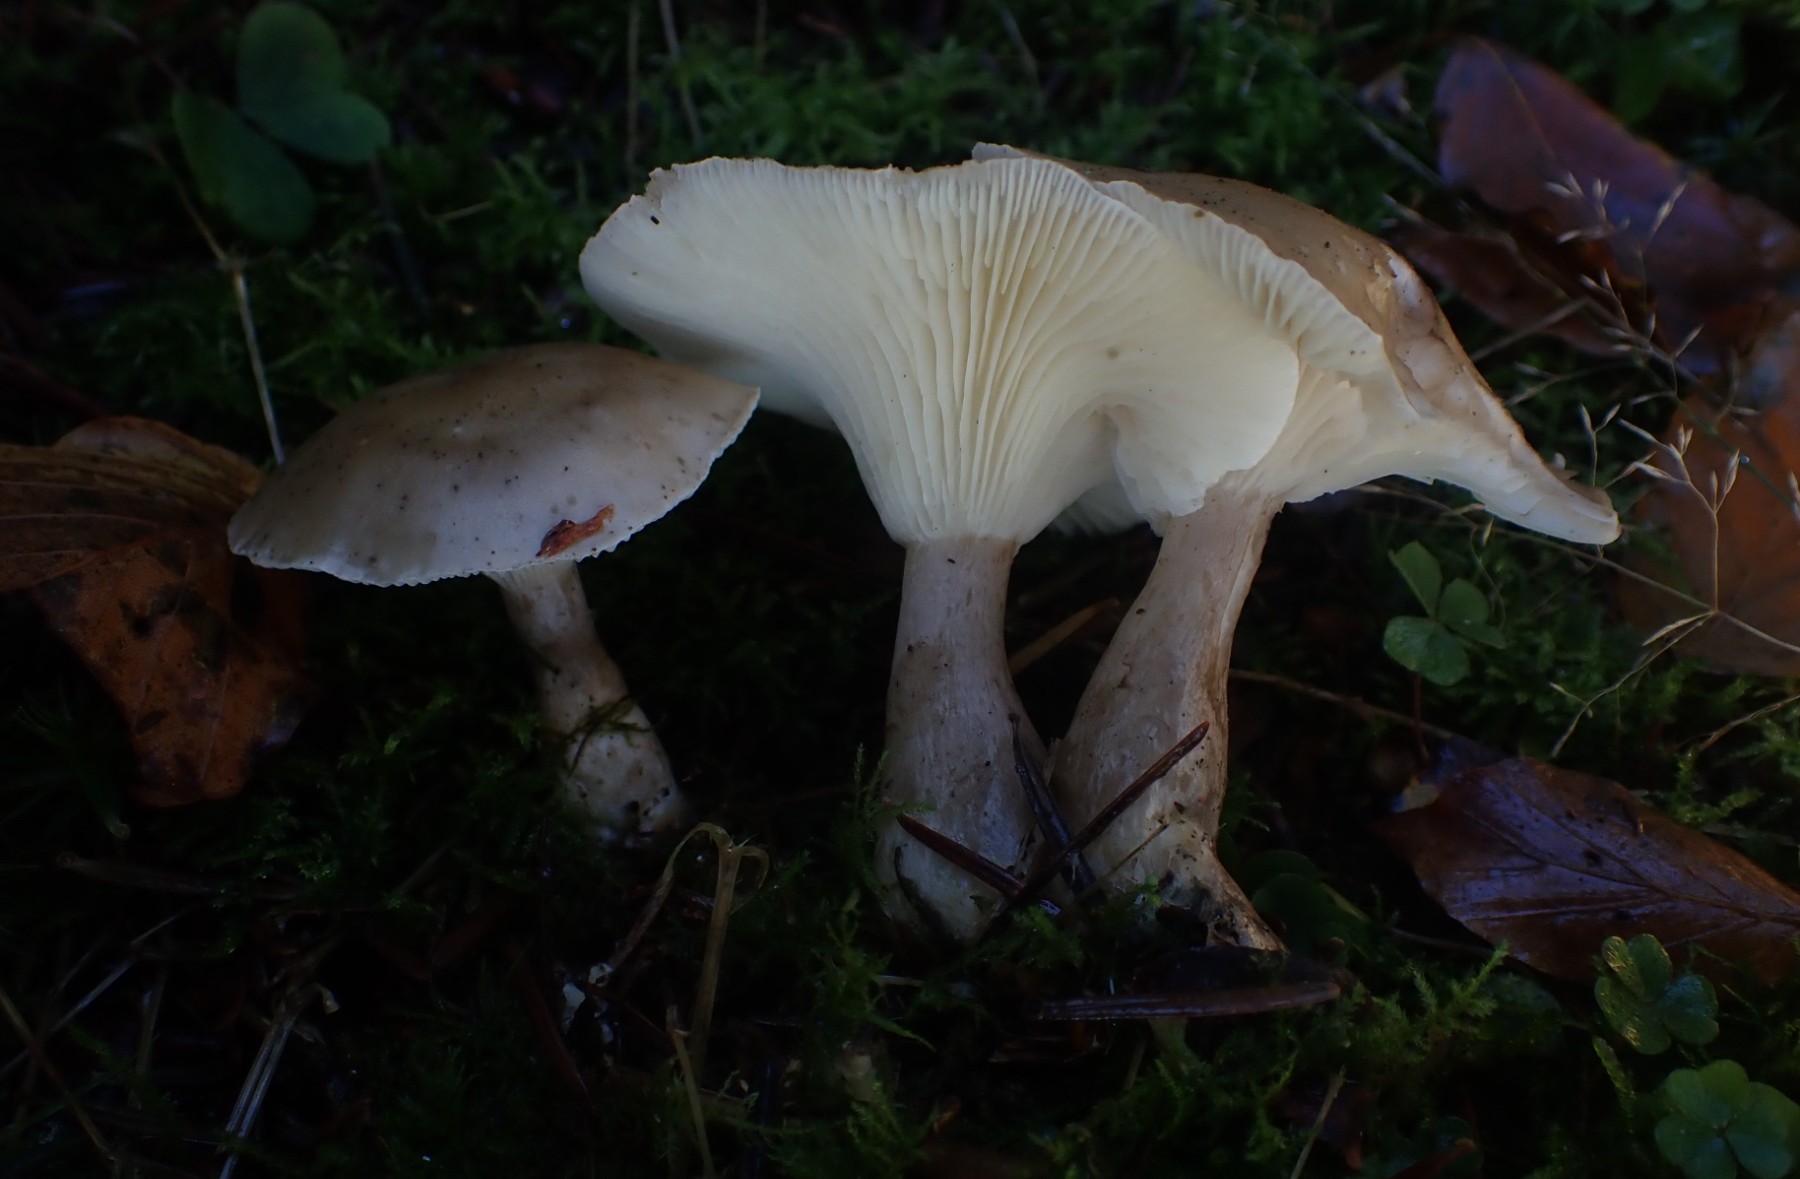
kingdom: Fungi
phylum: Basidiomycota
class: Agaricomycetes
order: Agaricales
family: Hygrophoraceae
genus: Ampulloclitocybe
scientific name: Ampulloclitocybe clavipes
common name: køllefod
